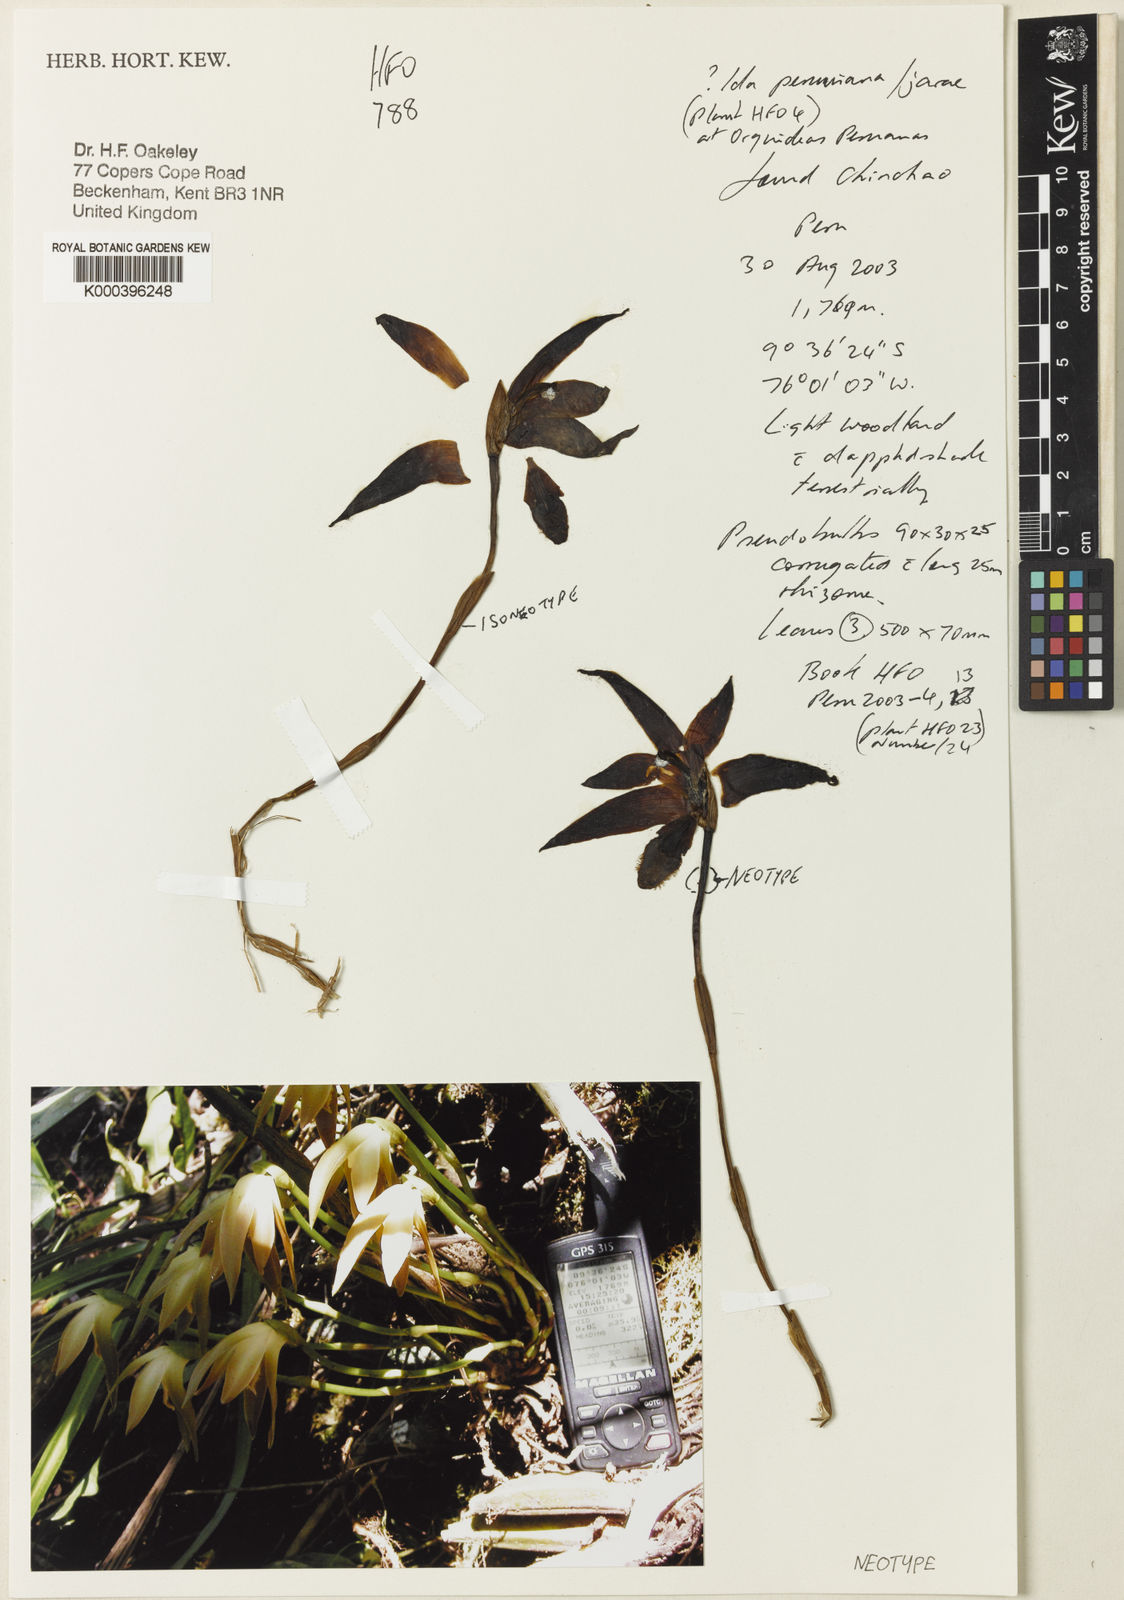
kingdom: Plantae
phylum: Tracheophyta
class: Liliopsida
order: Asparagales
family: Orchidaceae
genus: Ida
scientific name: Ida peruviana
